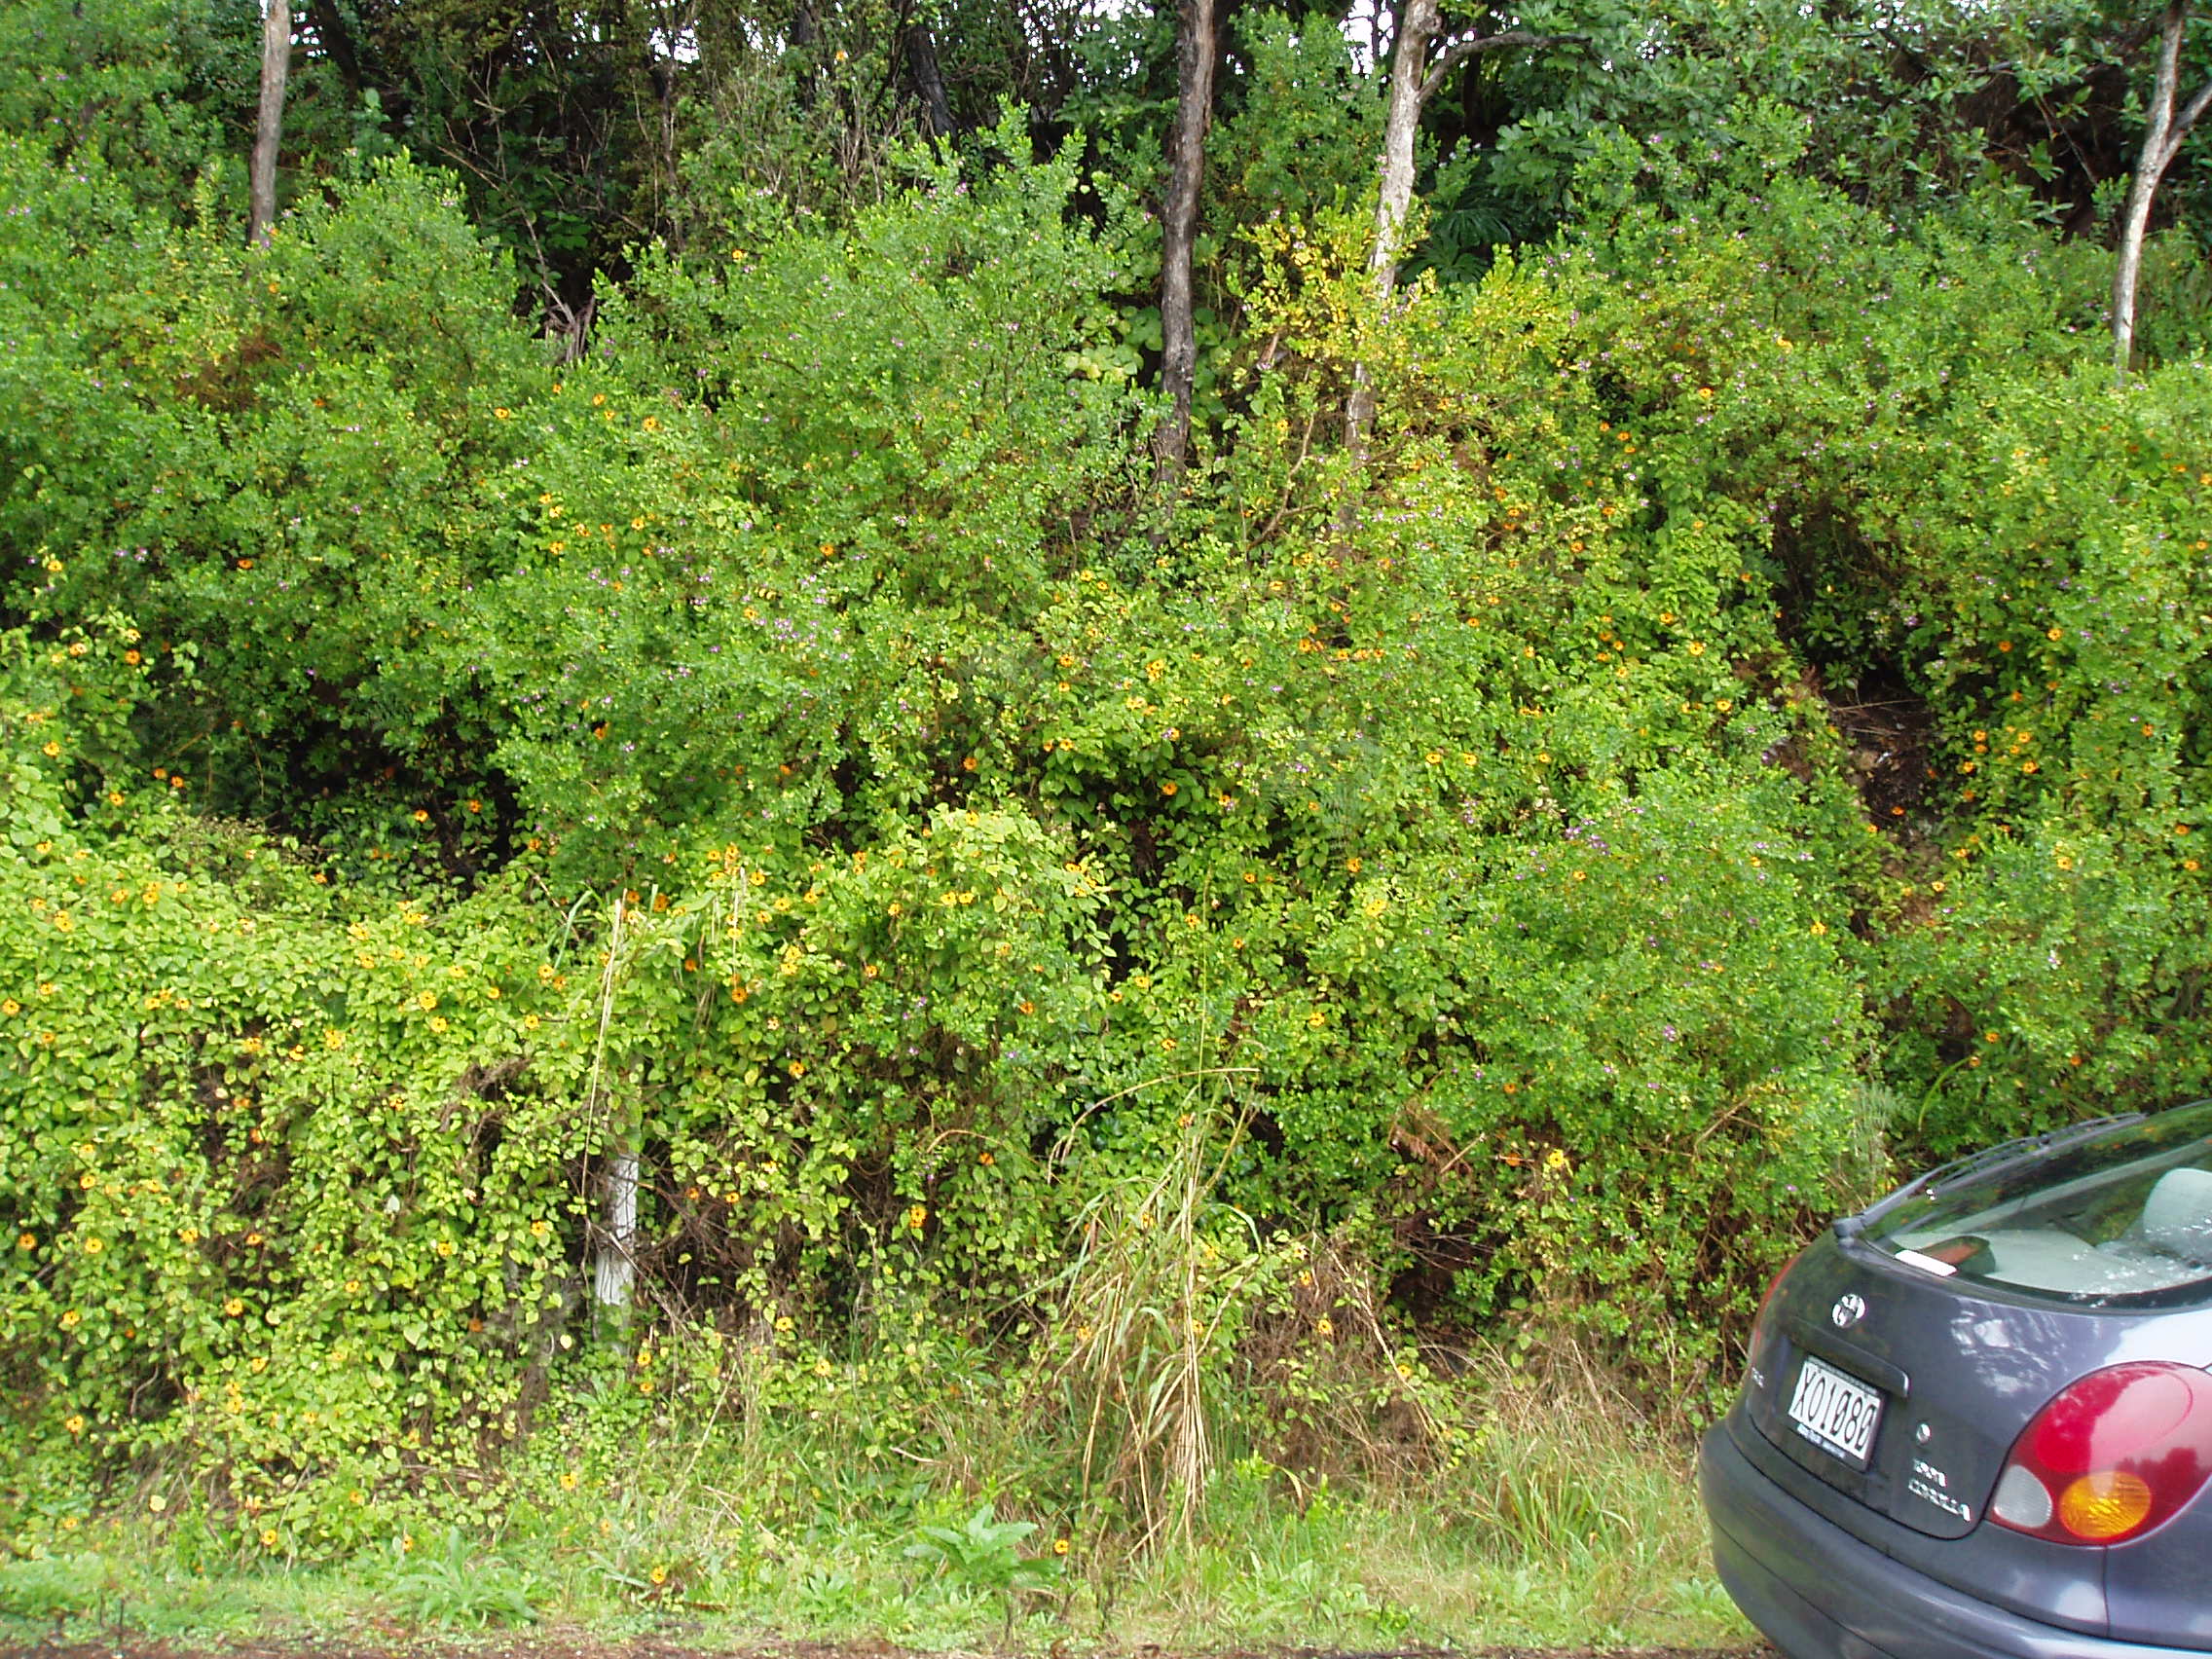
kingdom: Plantae
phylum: Tracheophyta
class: Magnoliopsida
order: Lamiales
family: Acanthaceae
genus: Thunbergia
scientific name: Thunbergia alata
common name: Blackeyed susan vine
